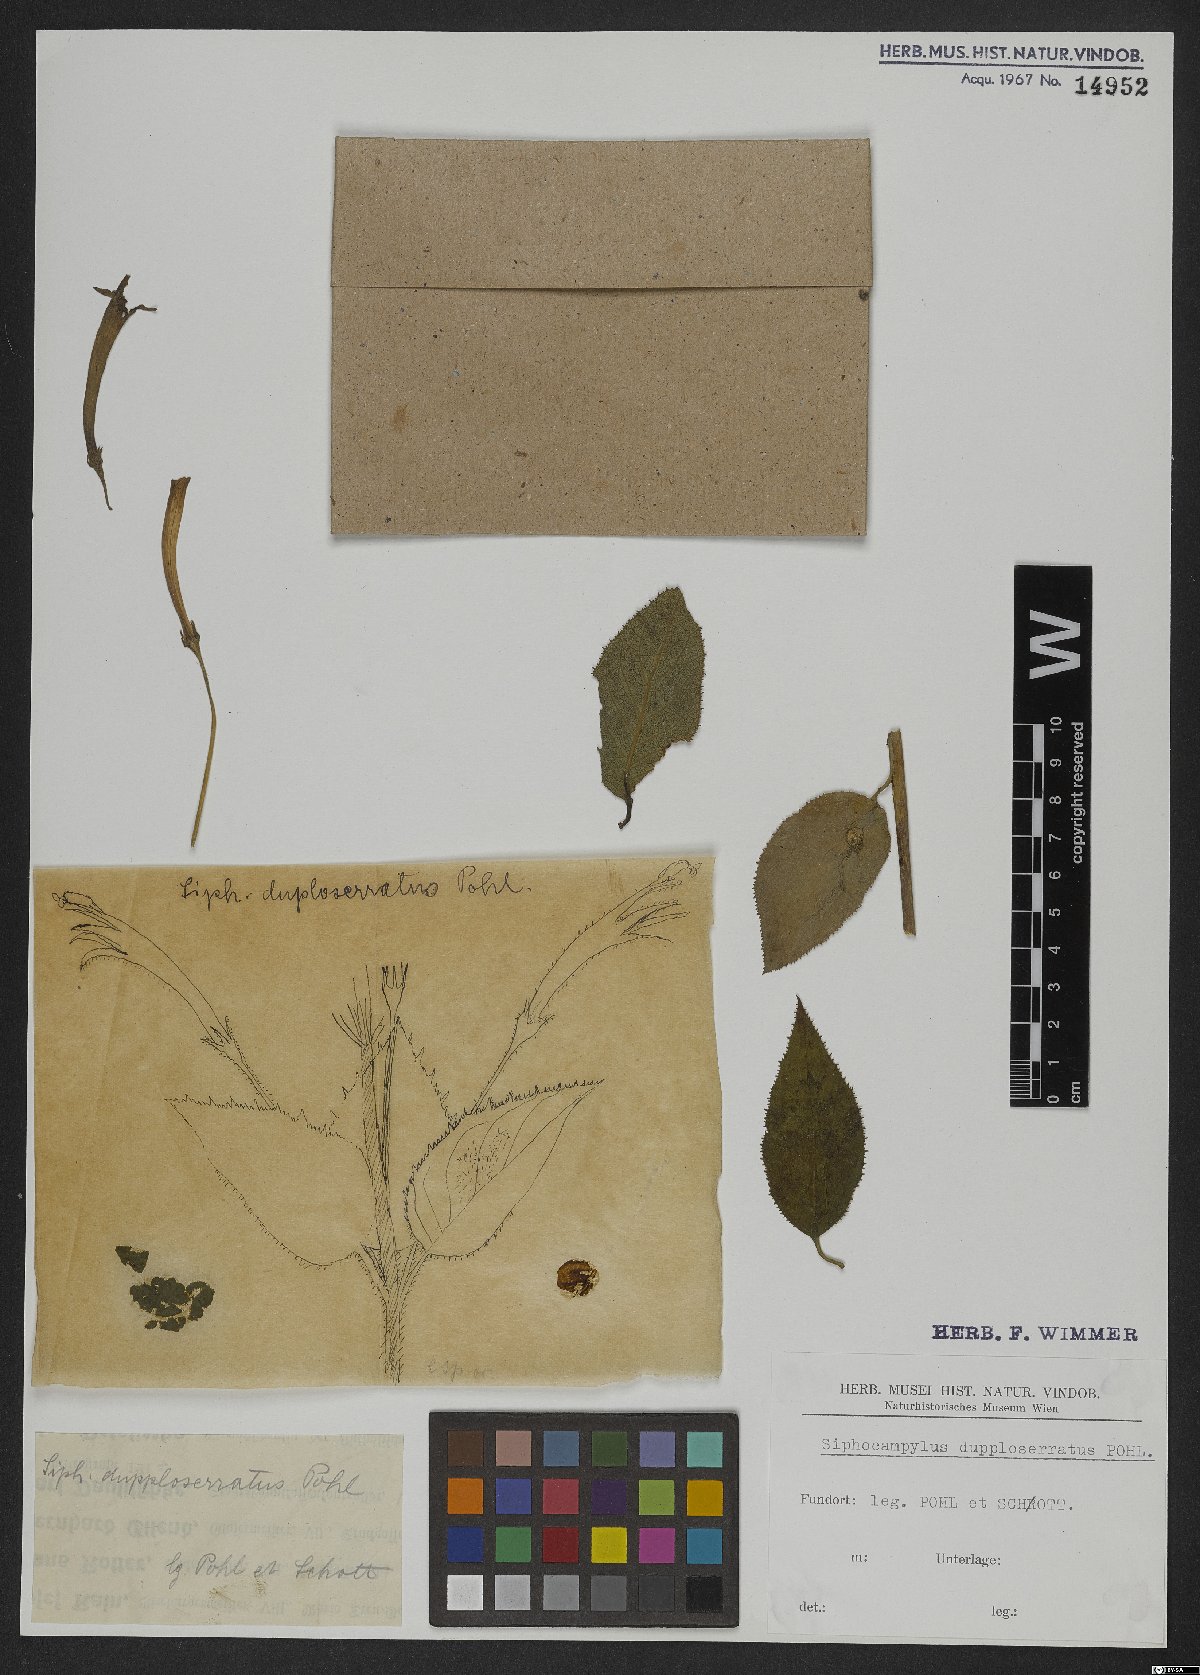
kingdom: Plantae
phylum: Tracheophyta
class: Magnoliopsida
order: Asterales
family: Campanulaceae
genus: Siphocampylus
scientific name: Siphocampylus duploserratus
